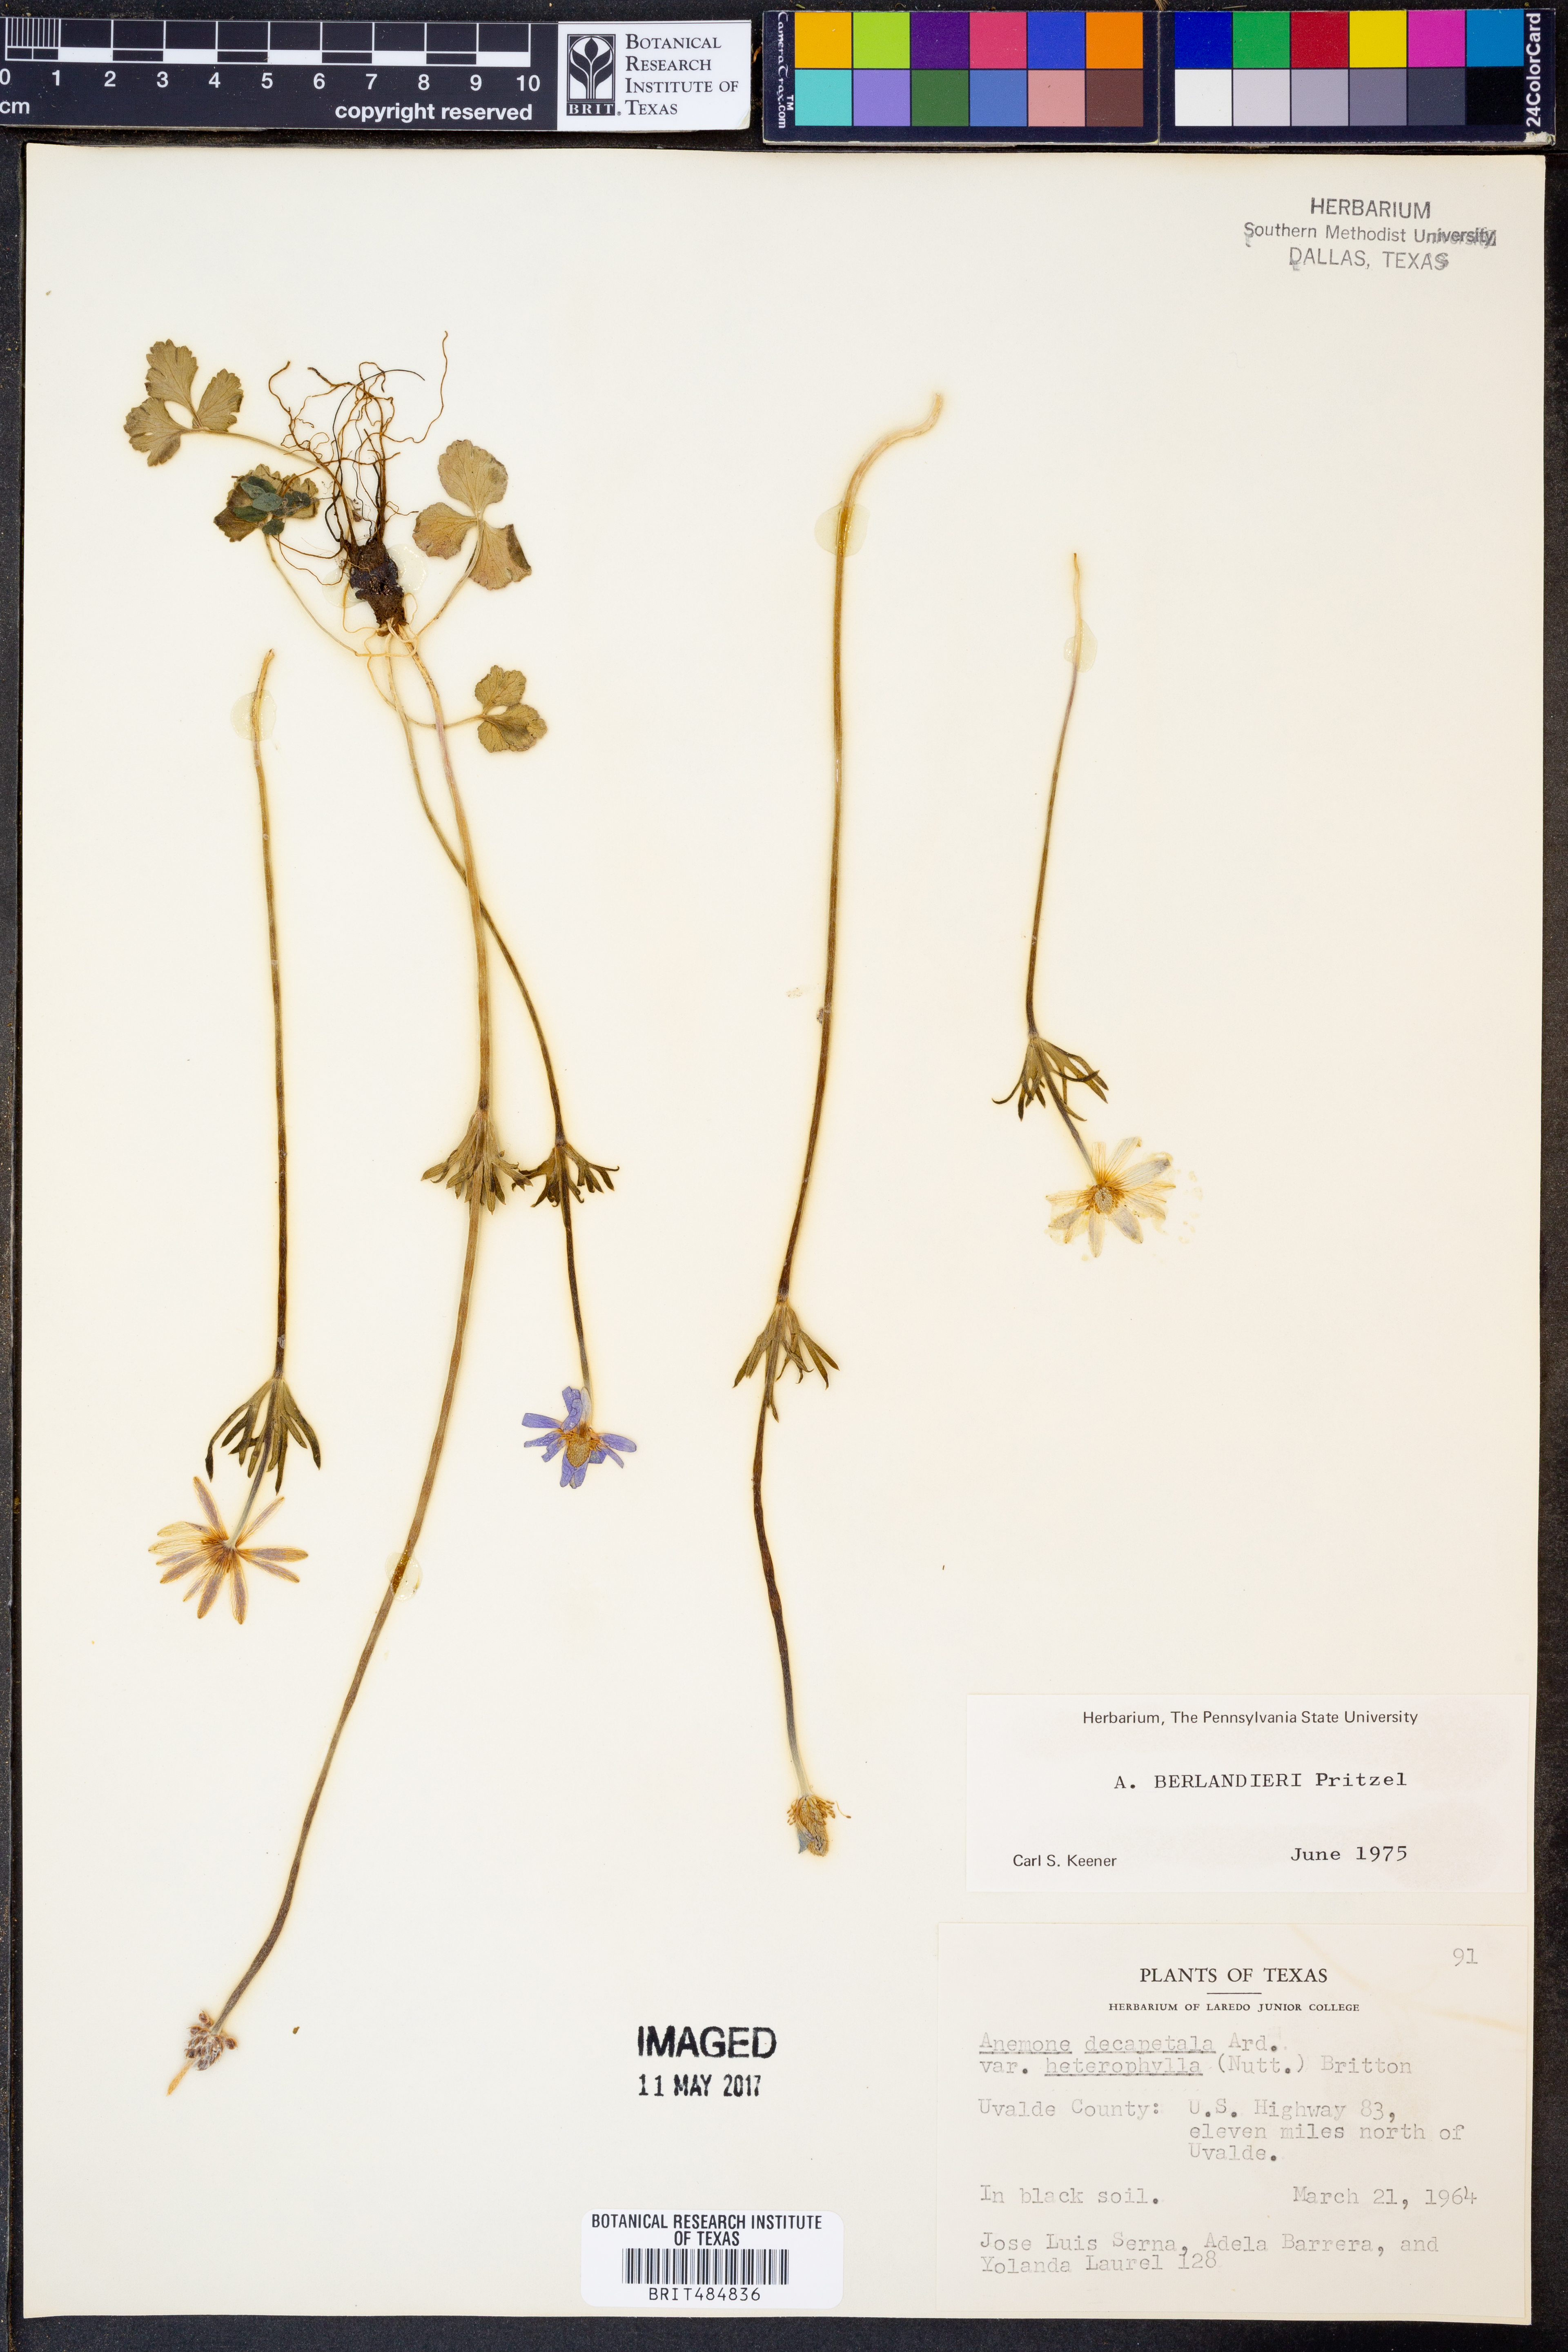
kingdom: Plantae
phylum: Tracheophyta
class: Magnoliopsida
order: Ranunculales
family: Ranunculaceae
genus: Anemone
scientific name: Anemone berlandieri
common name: Ten-petal anemone
